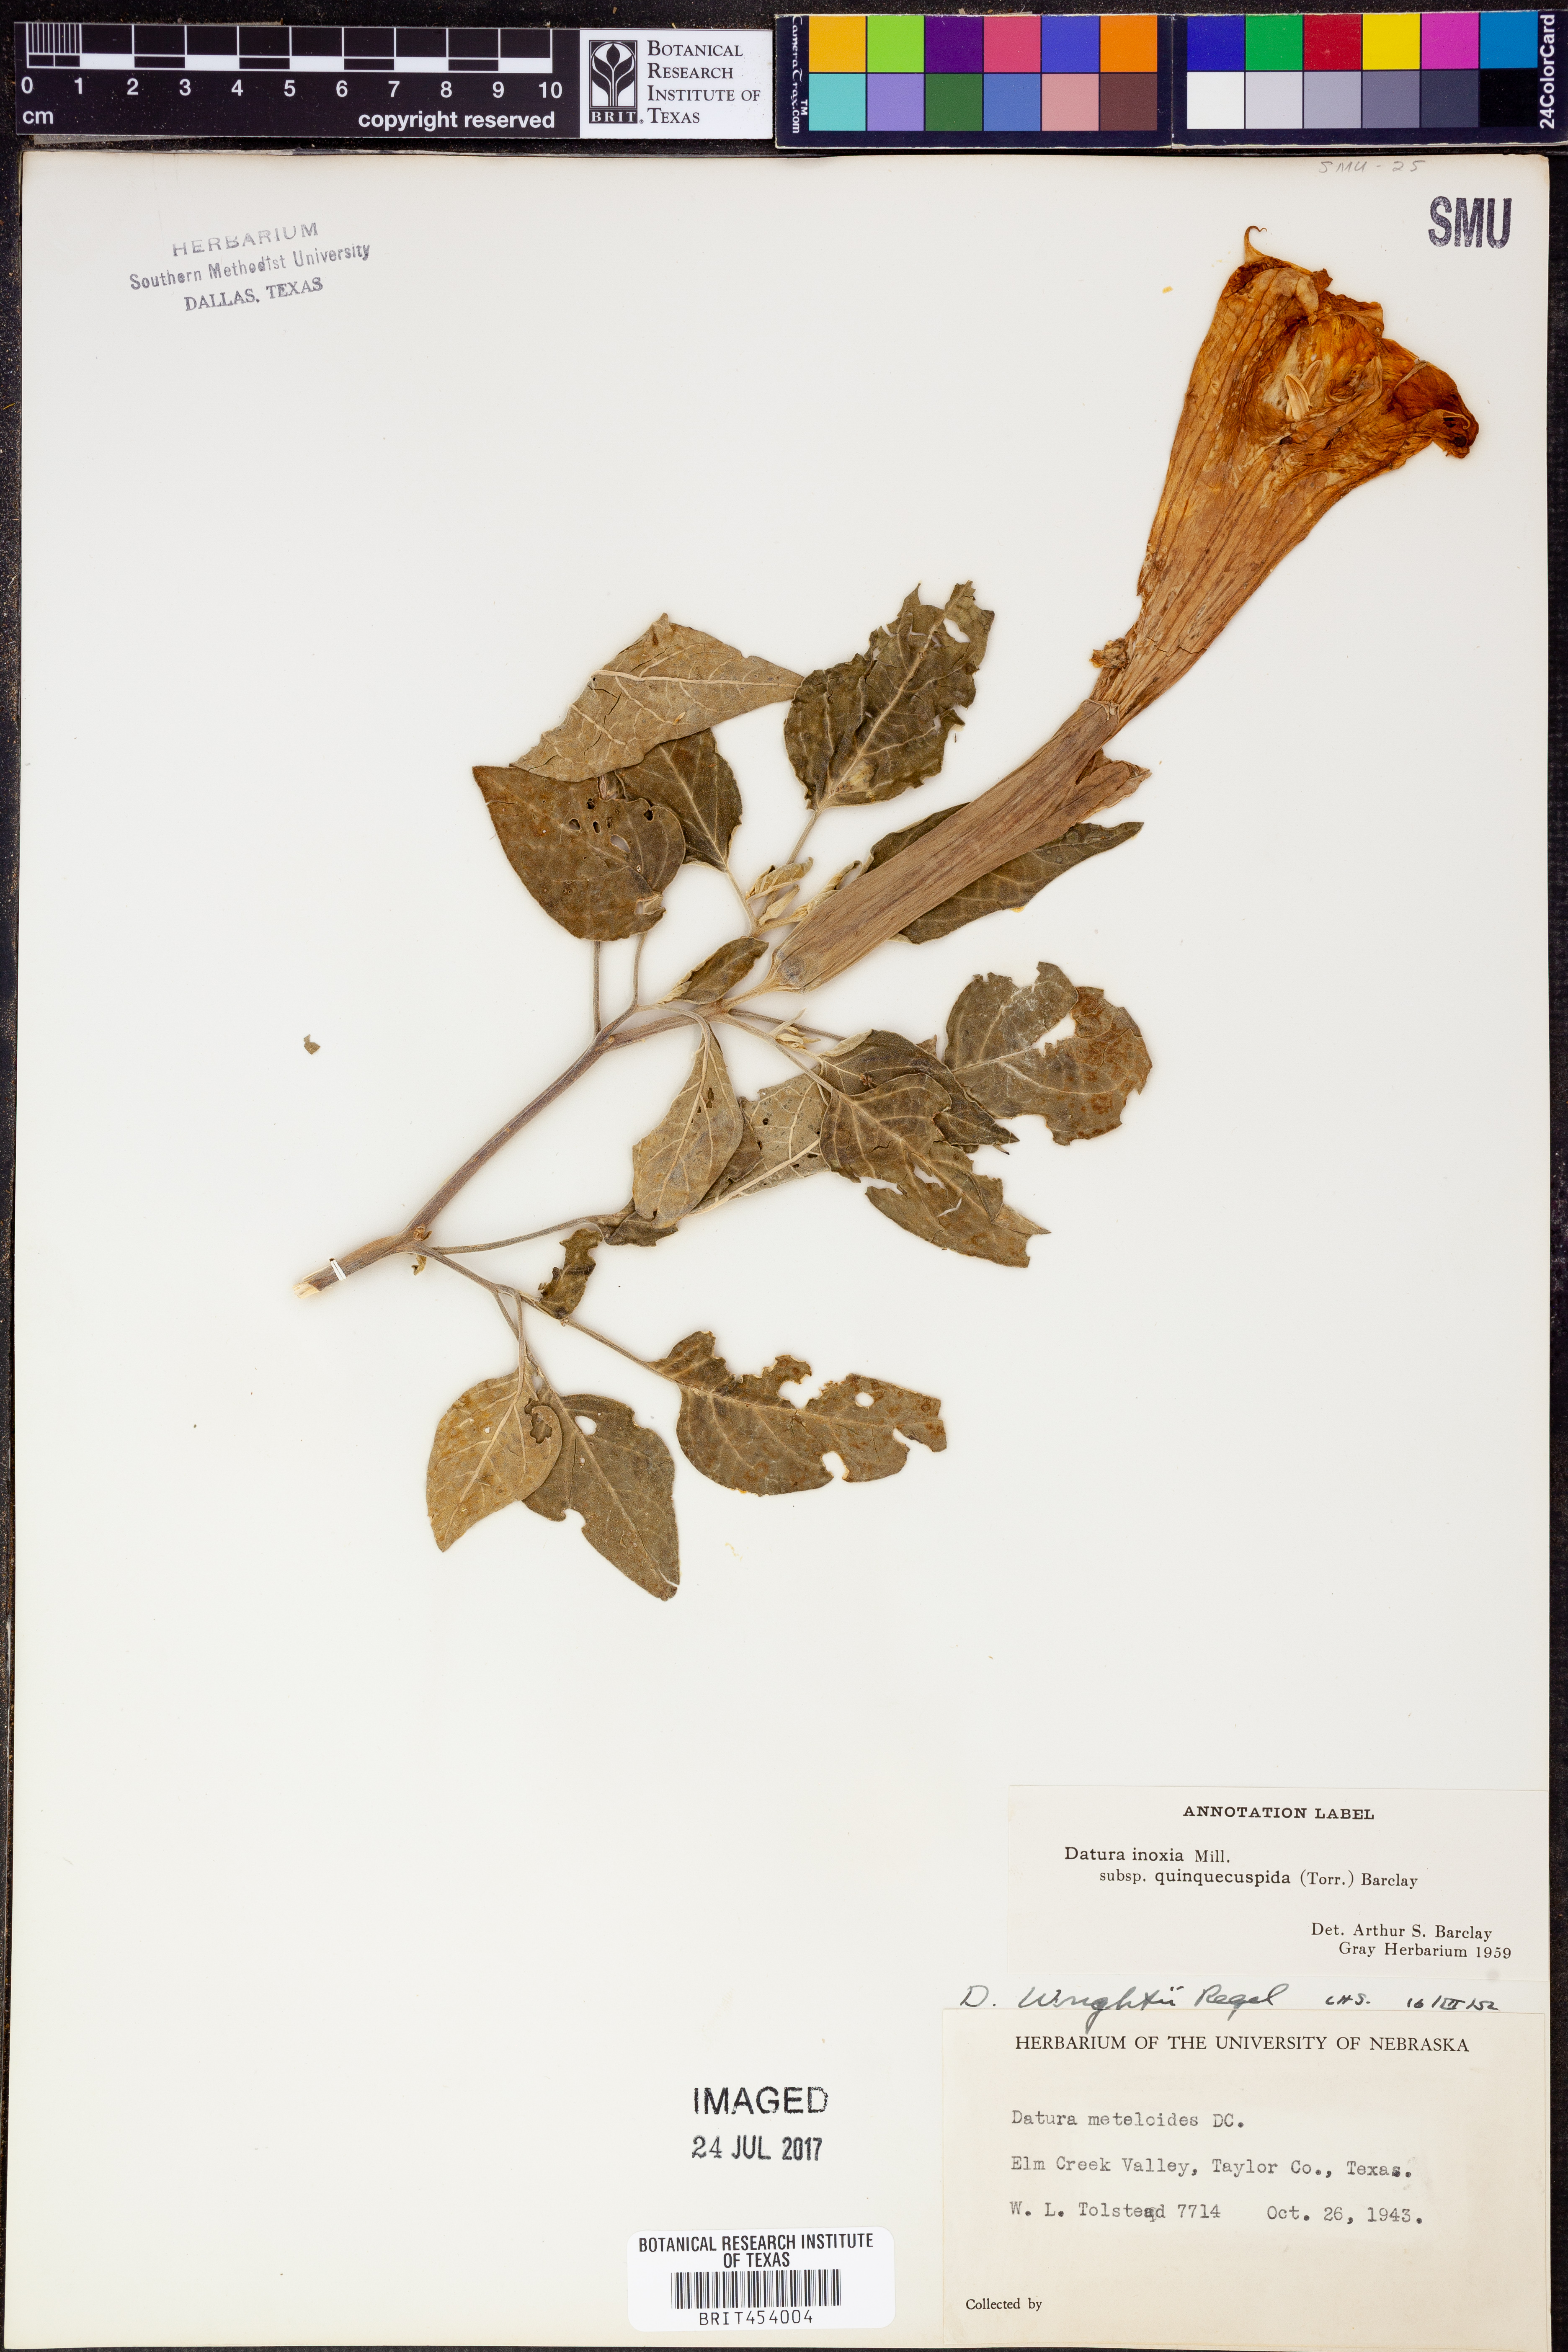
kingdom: Plantae
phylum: Tracheophyta
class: Magnoliopsida
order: Solanales
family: Solanaceae
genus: Datura
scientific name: Datura wrightii
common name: Sacred thorn-apple
